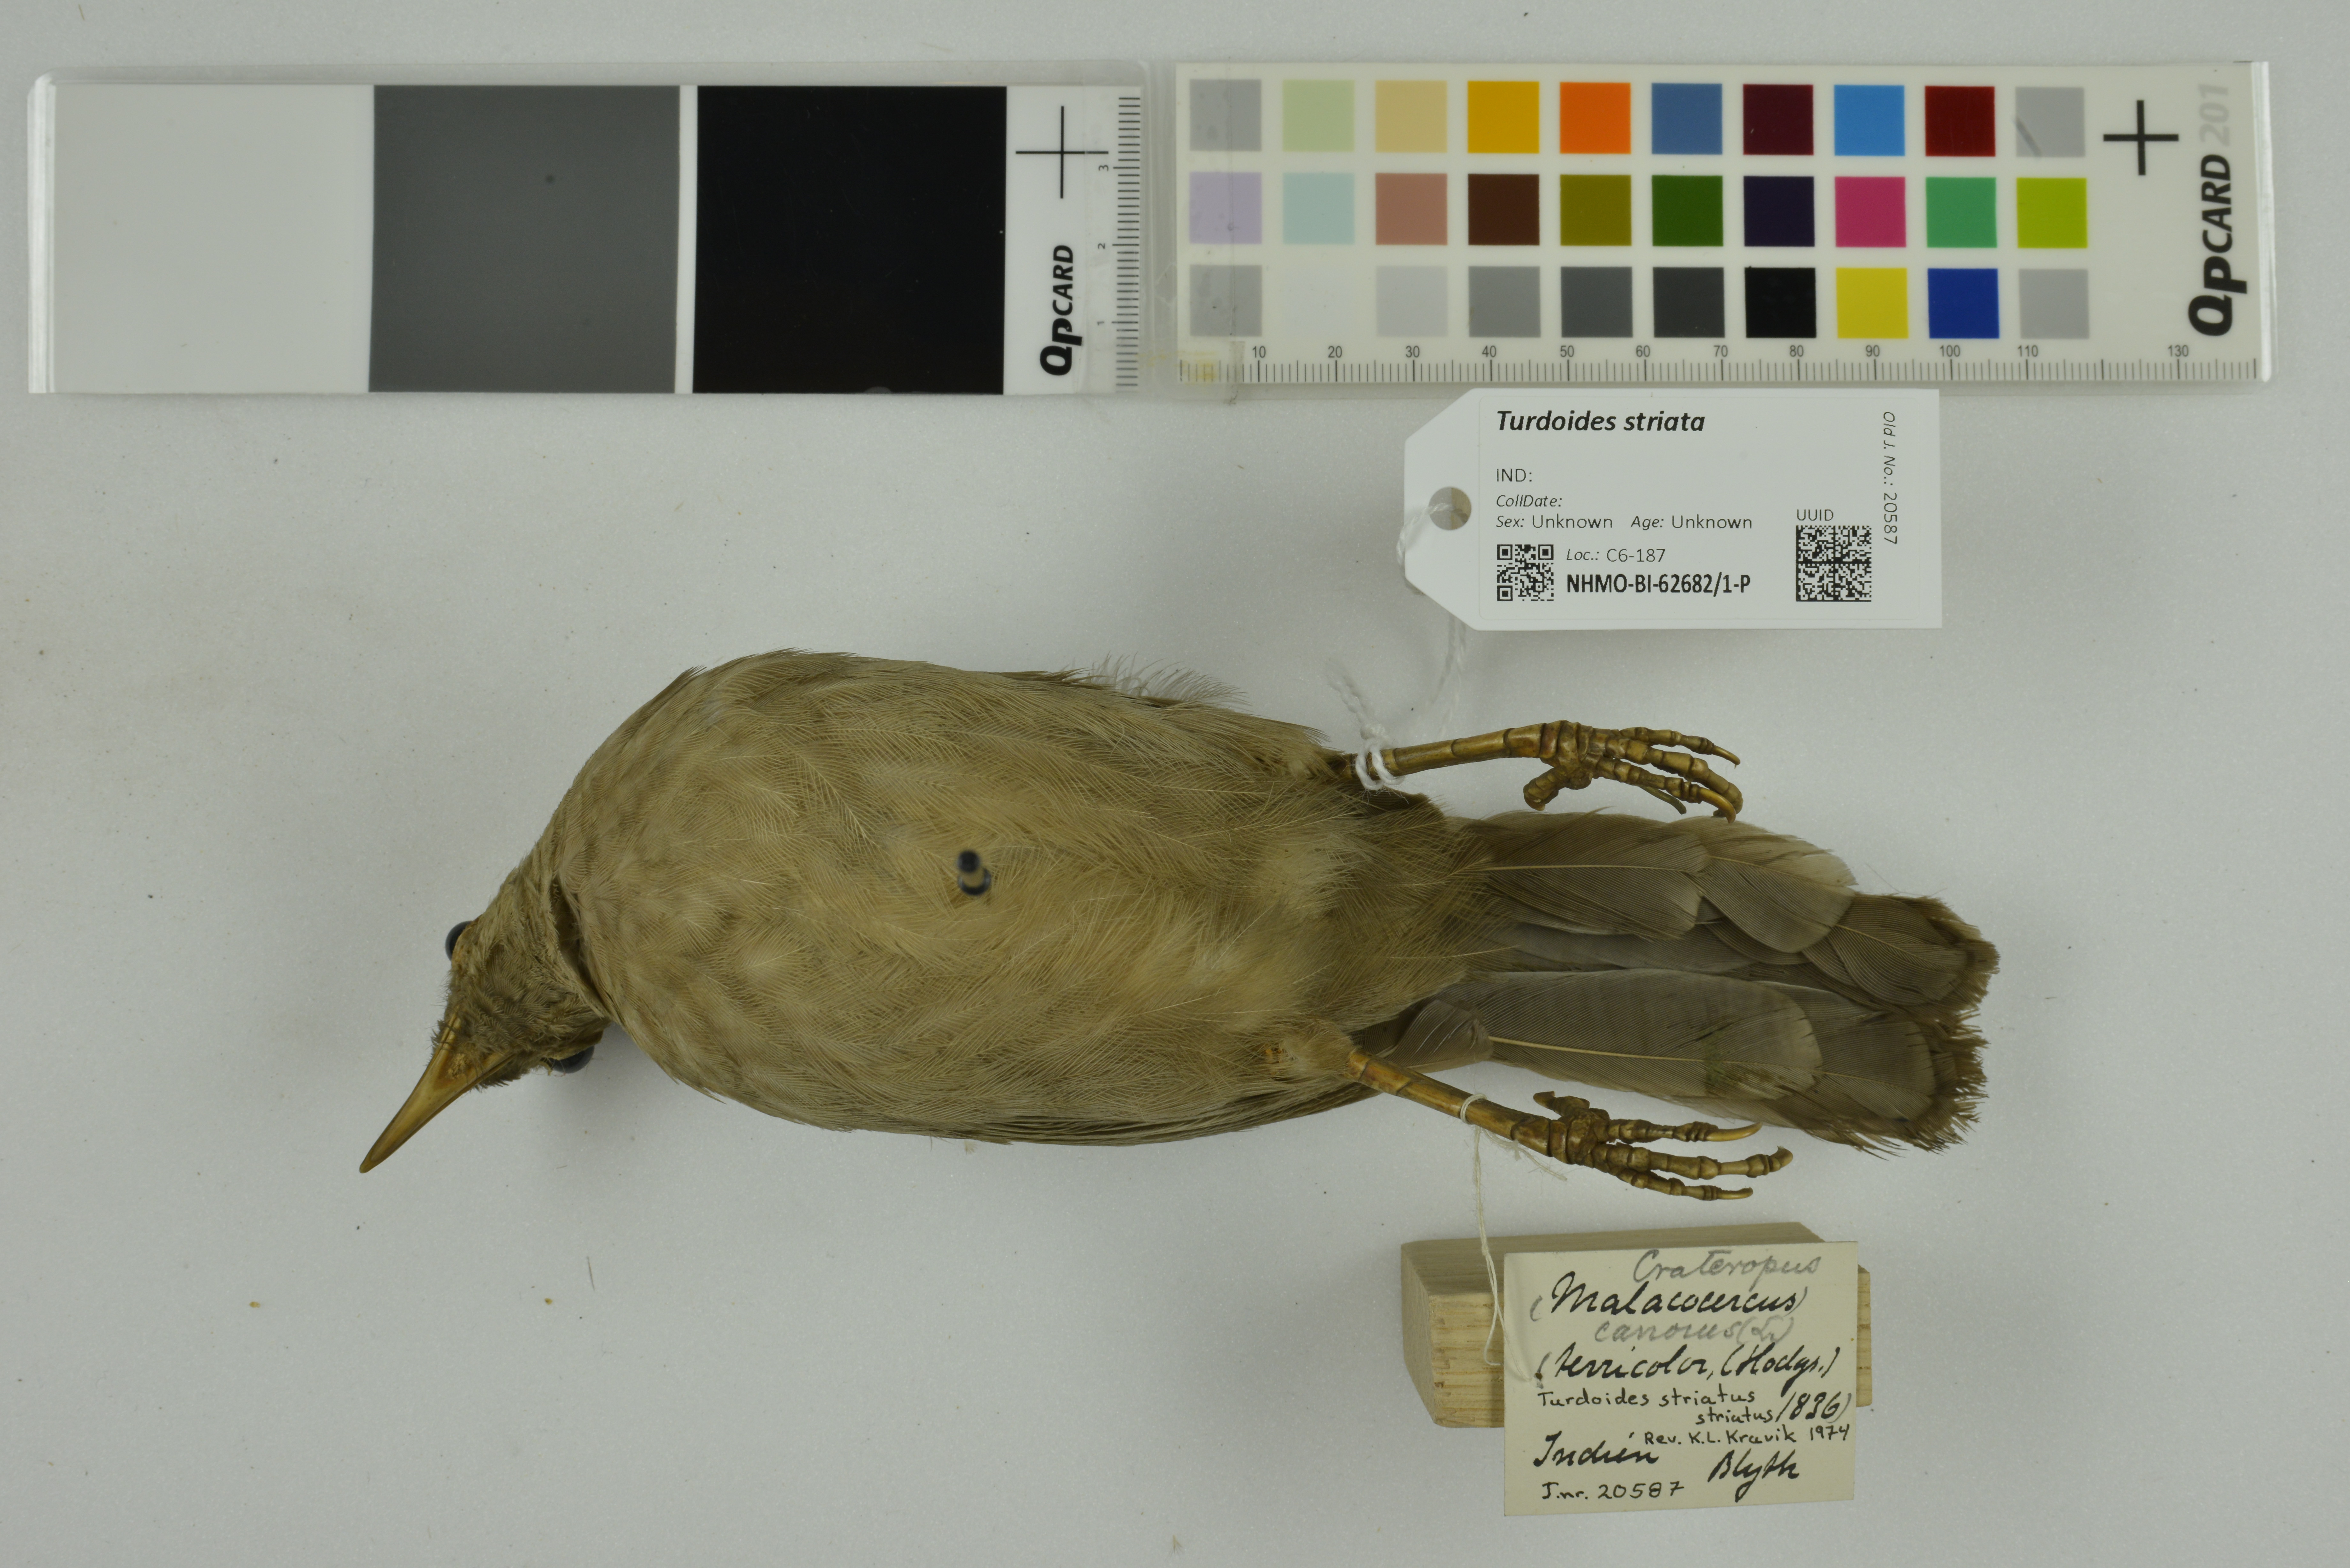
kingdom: Animalia
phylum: Chordata
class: Aves
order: Passeriformes
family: Leiothrichidae
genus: Turdoides
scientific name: Turdoides striata
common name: Jungle babbler
